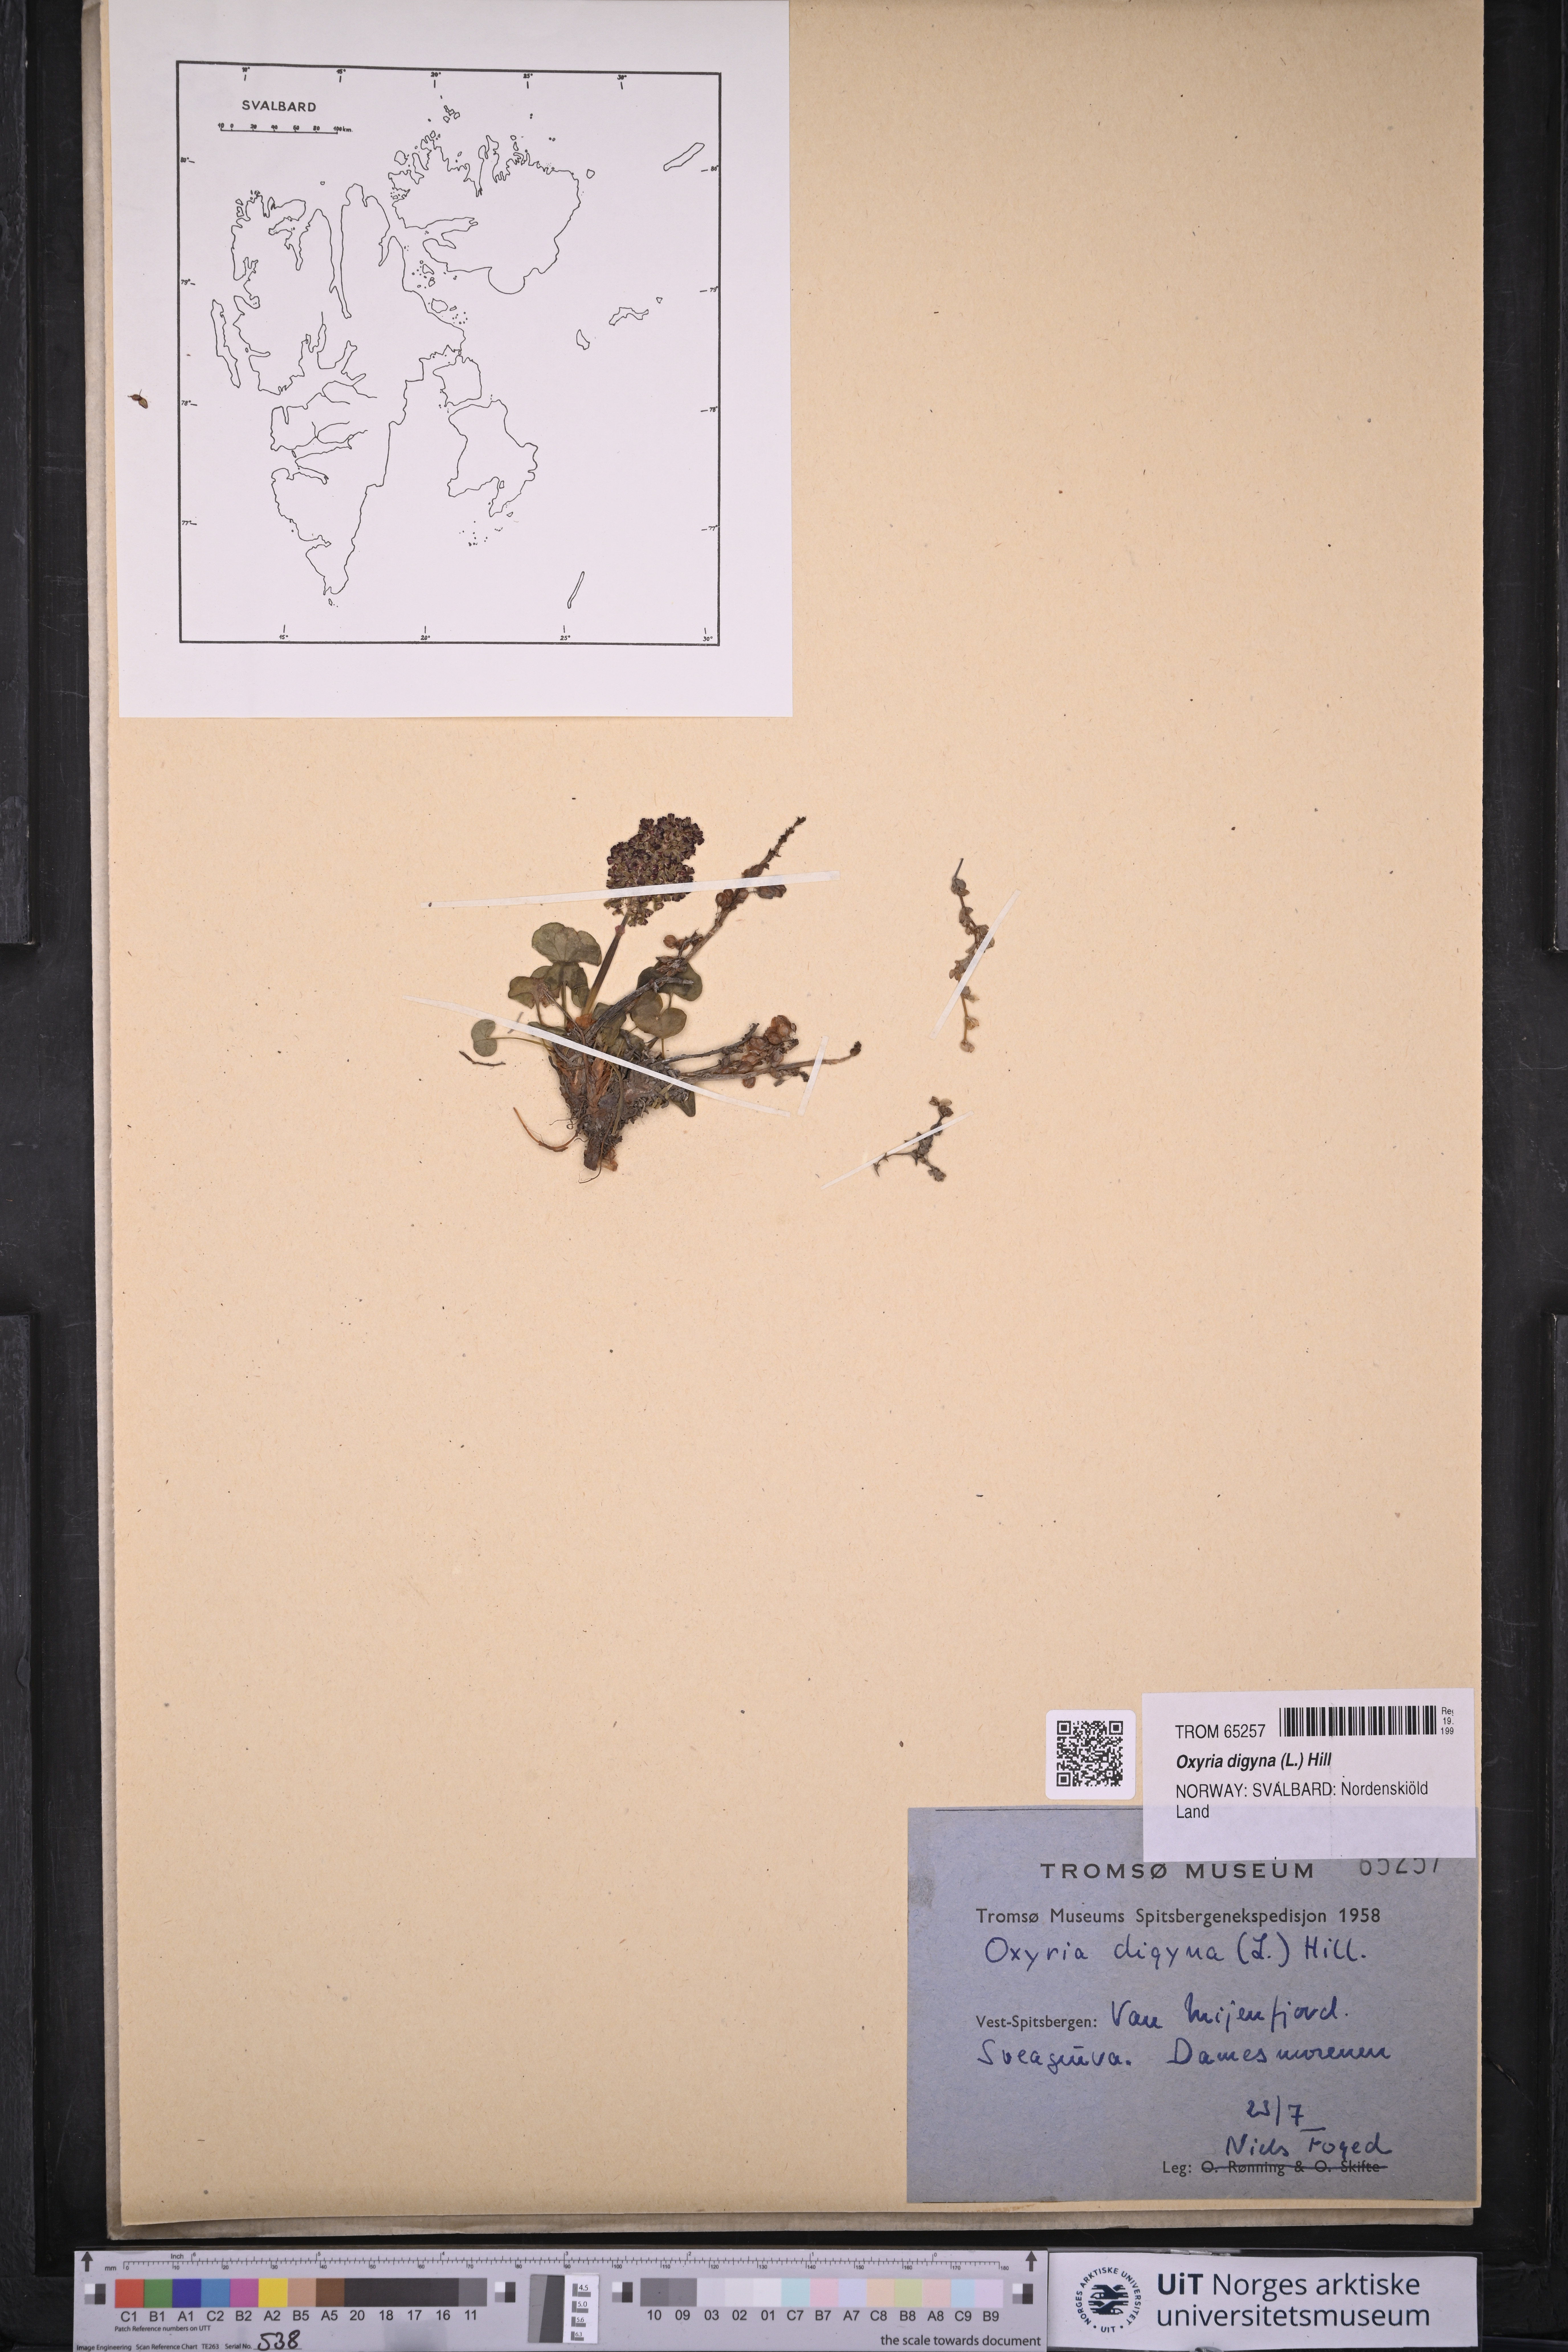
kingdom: Plantae
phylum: Tracheophyta
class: Magnoliopsida
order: Caryophyllales
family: Polygonaceae
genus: Oxyria
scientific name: Oxyria digyna
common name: Alpine mountain-sorrel
